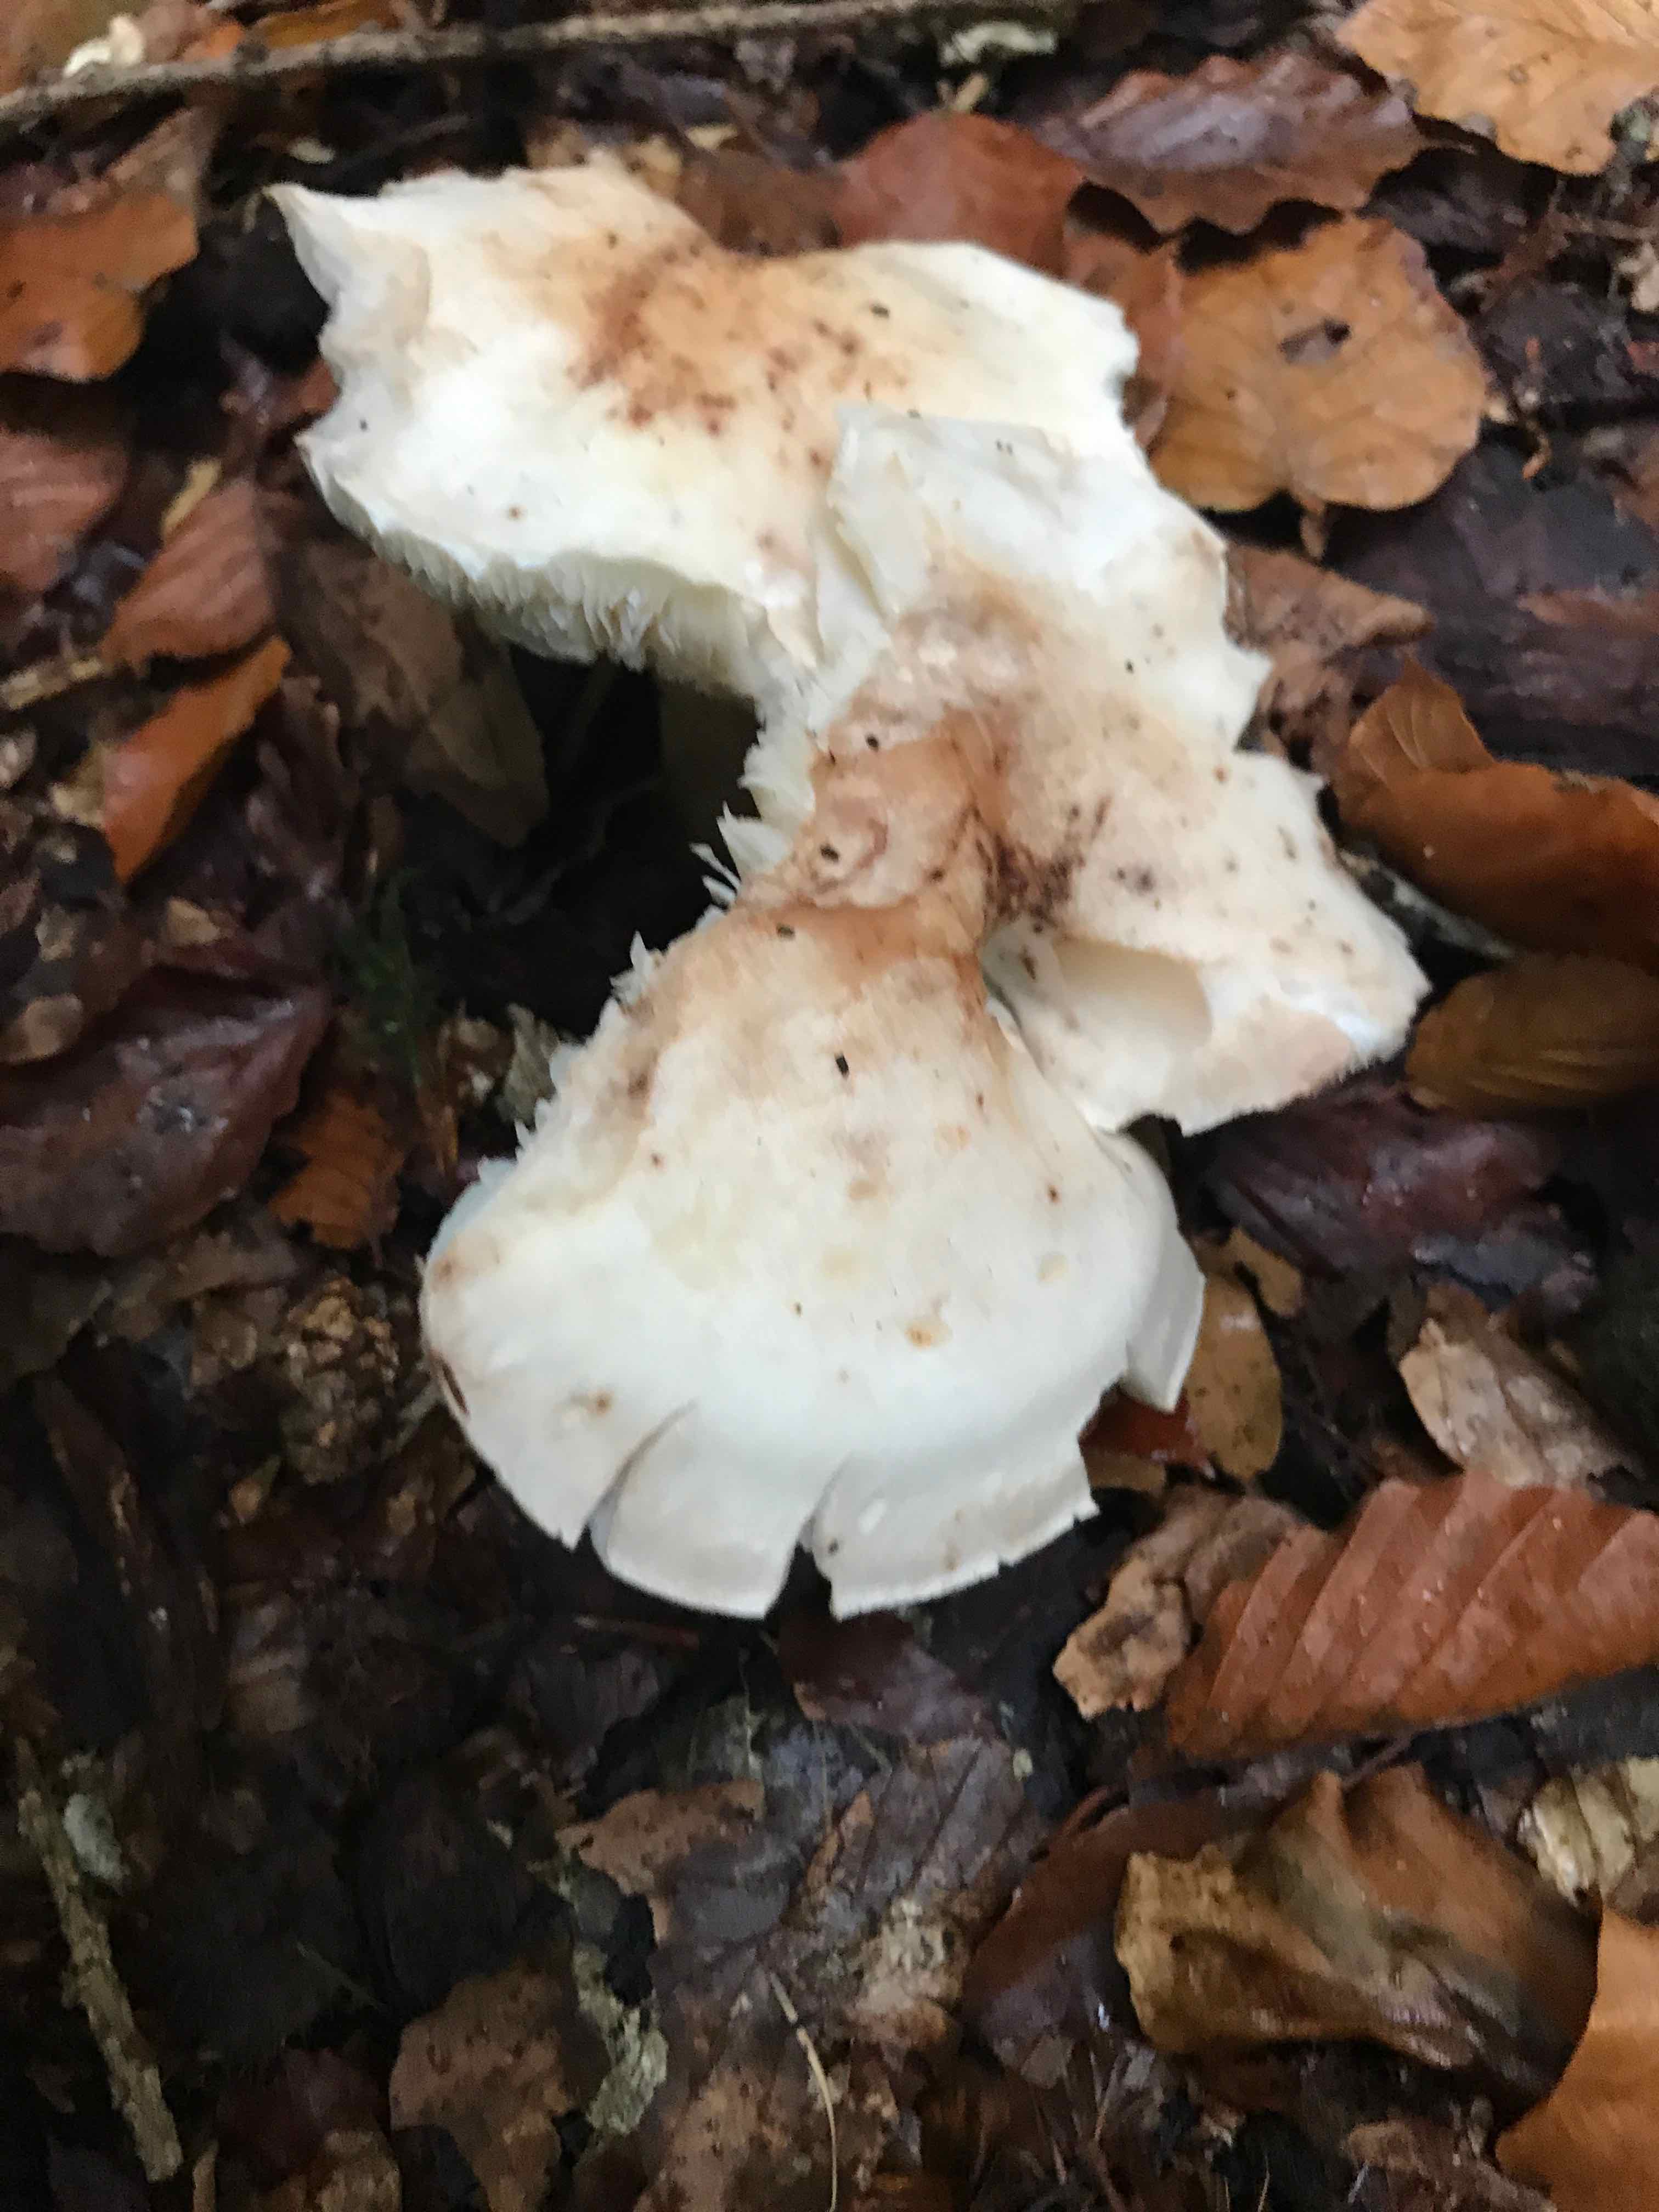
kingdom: Fungi
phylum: Basidiomycota
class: Agaricomycetes
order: Agaricales
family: Omphalotaceae
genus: Rhodocollybia
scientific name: Rhodocollybia maculata
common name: plettet fladhat
